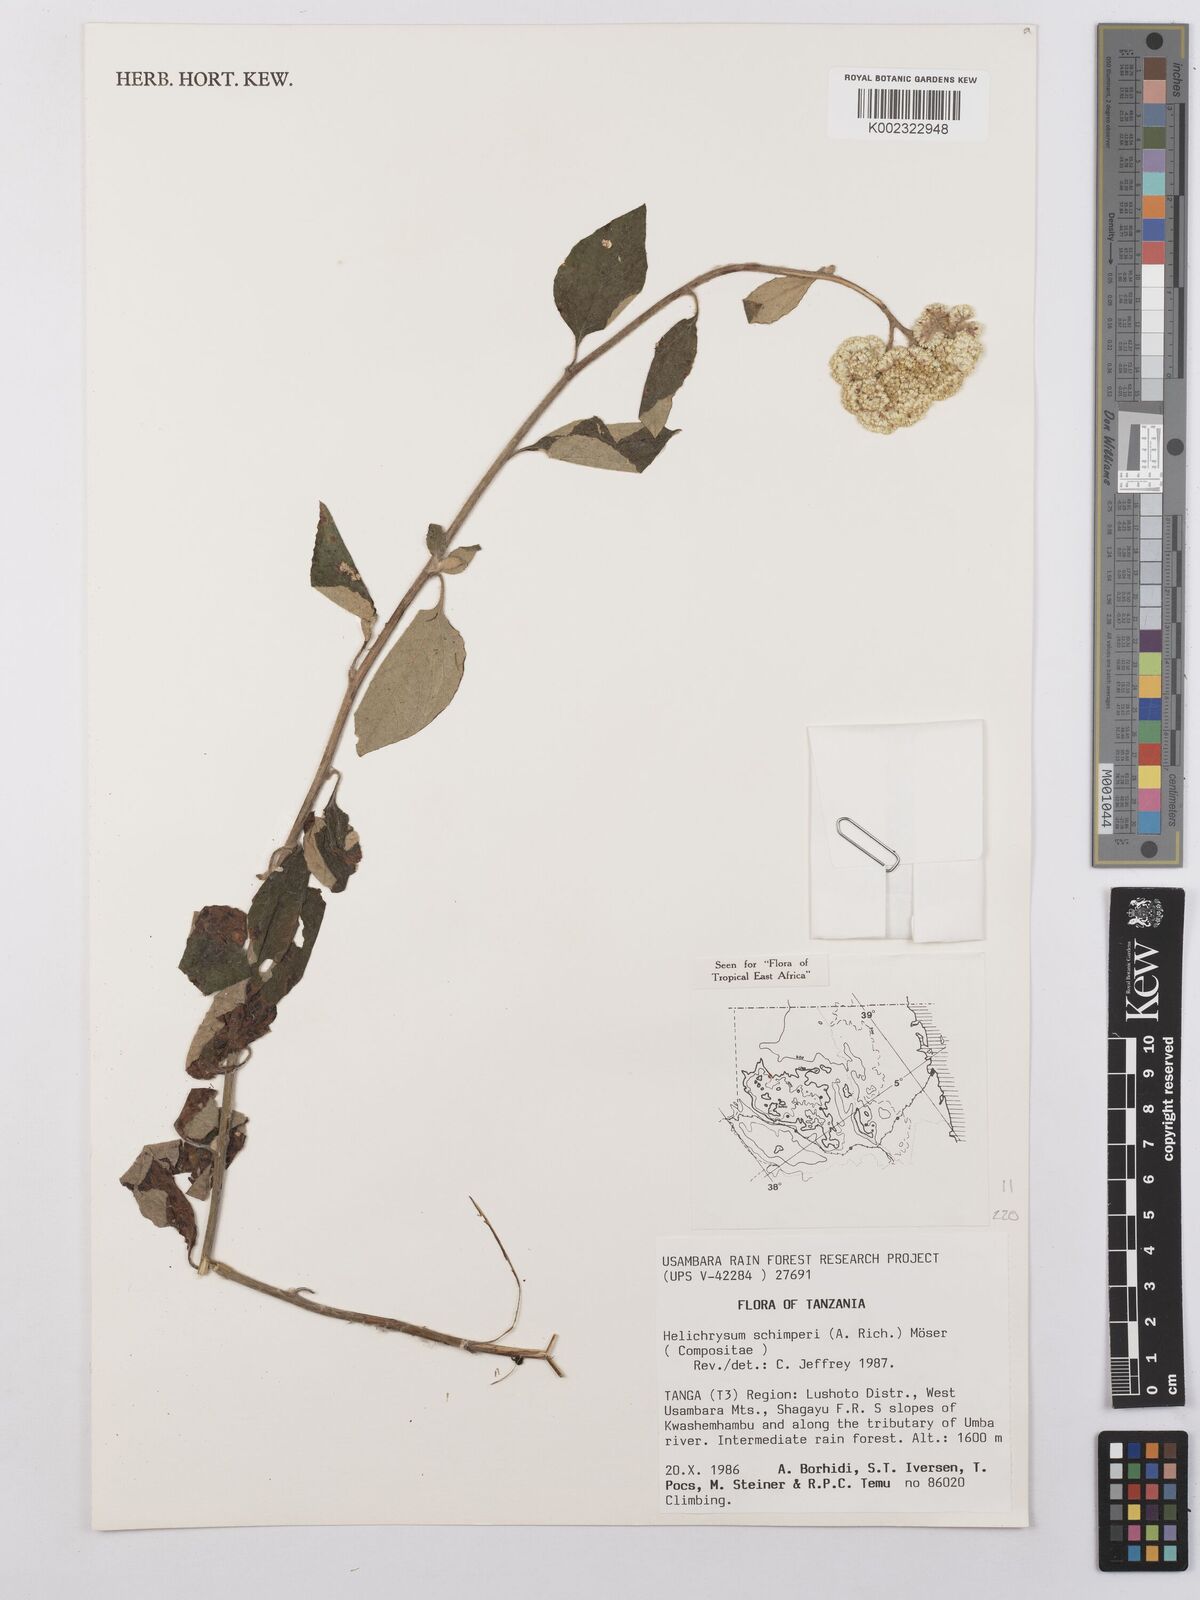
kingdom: Plantae
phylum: Tracheophyta
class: Magnoliopsida
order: Asterales
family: Asteraceae
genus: Helichrysum
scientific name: Helichrysum schimperi
